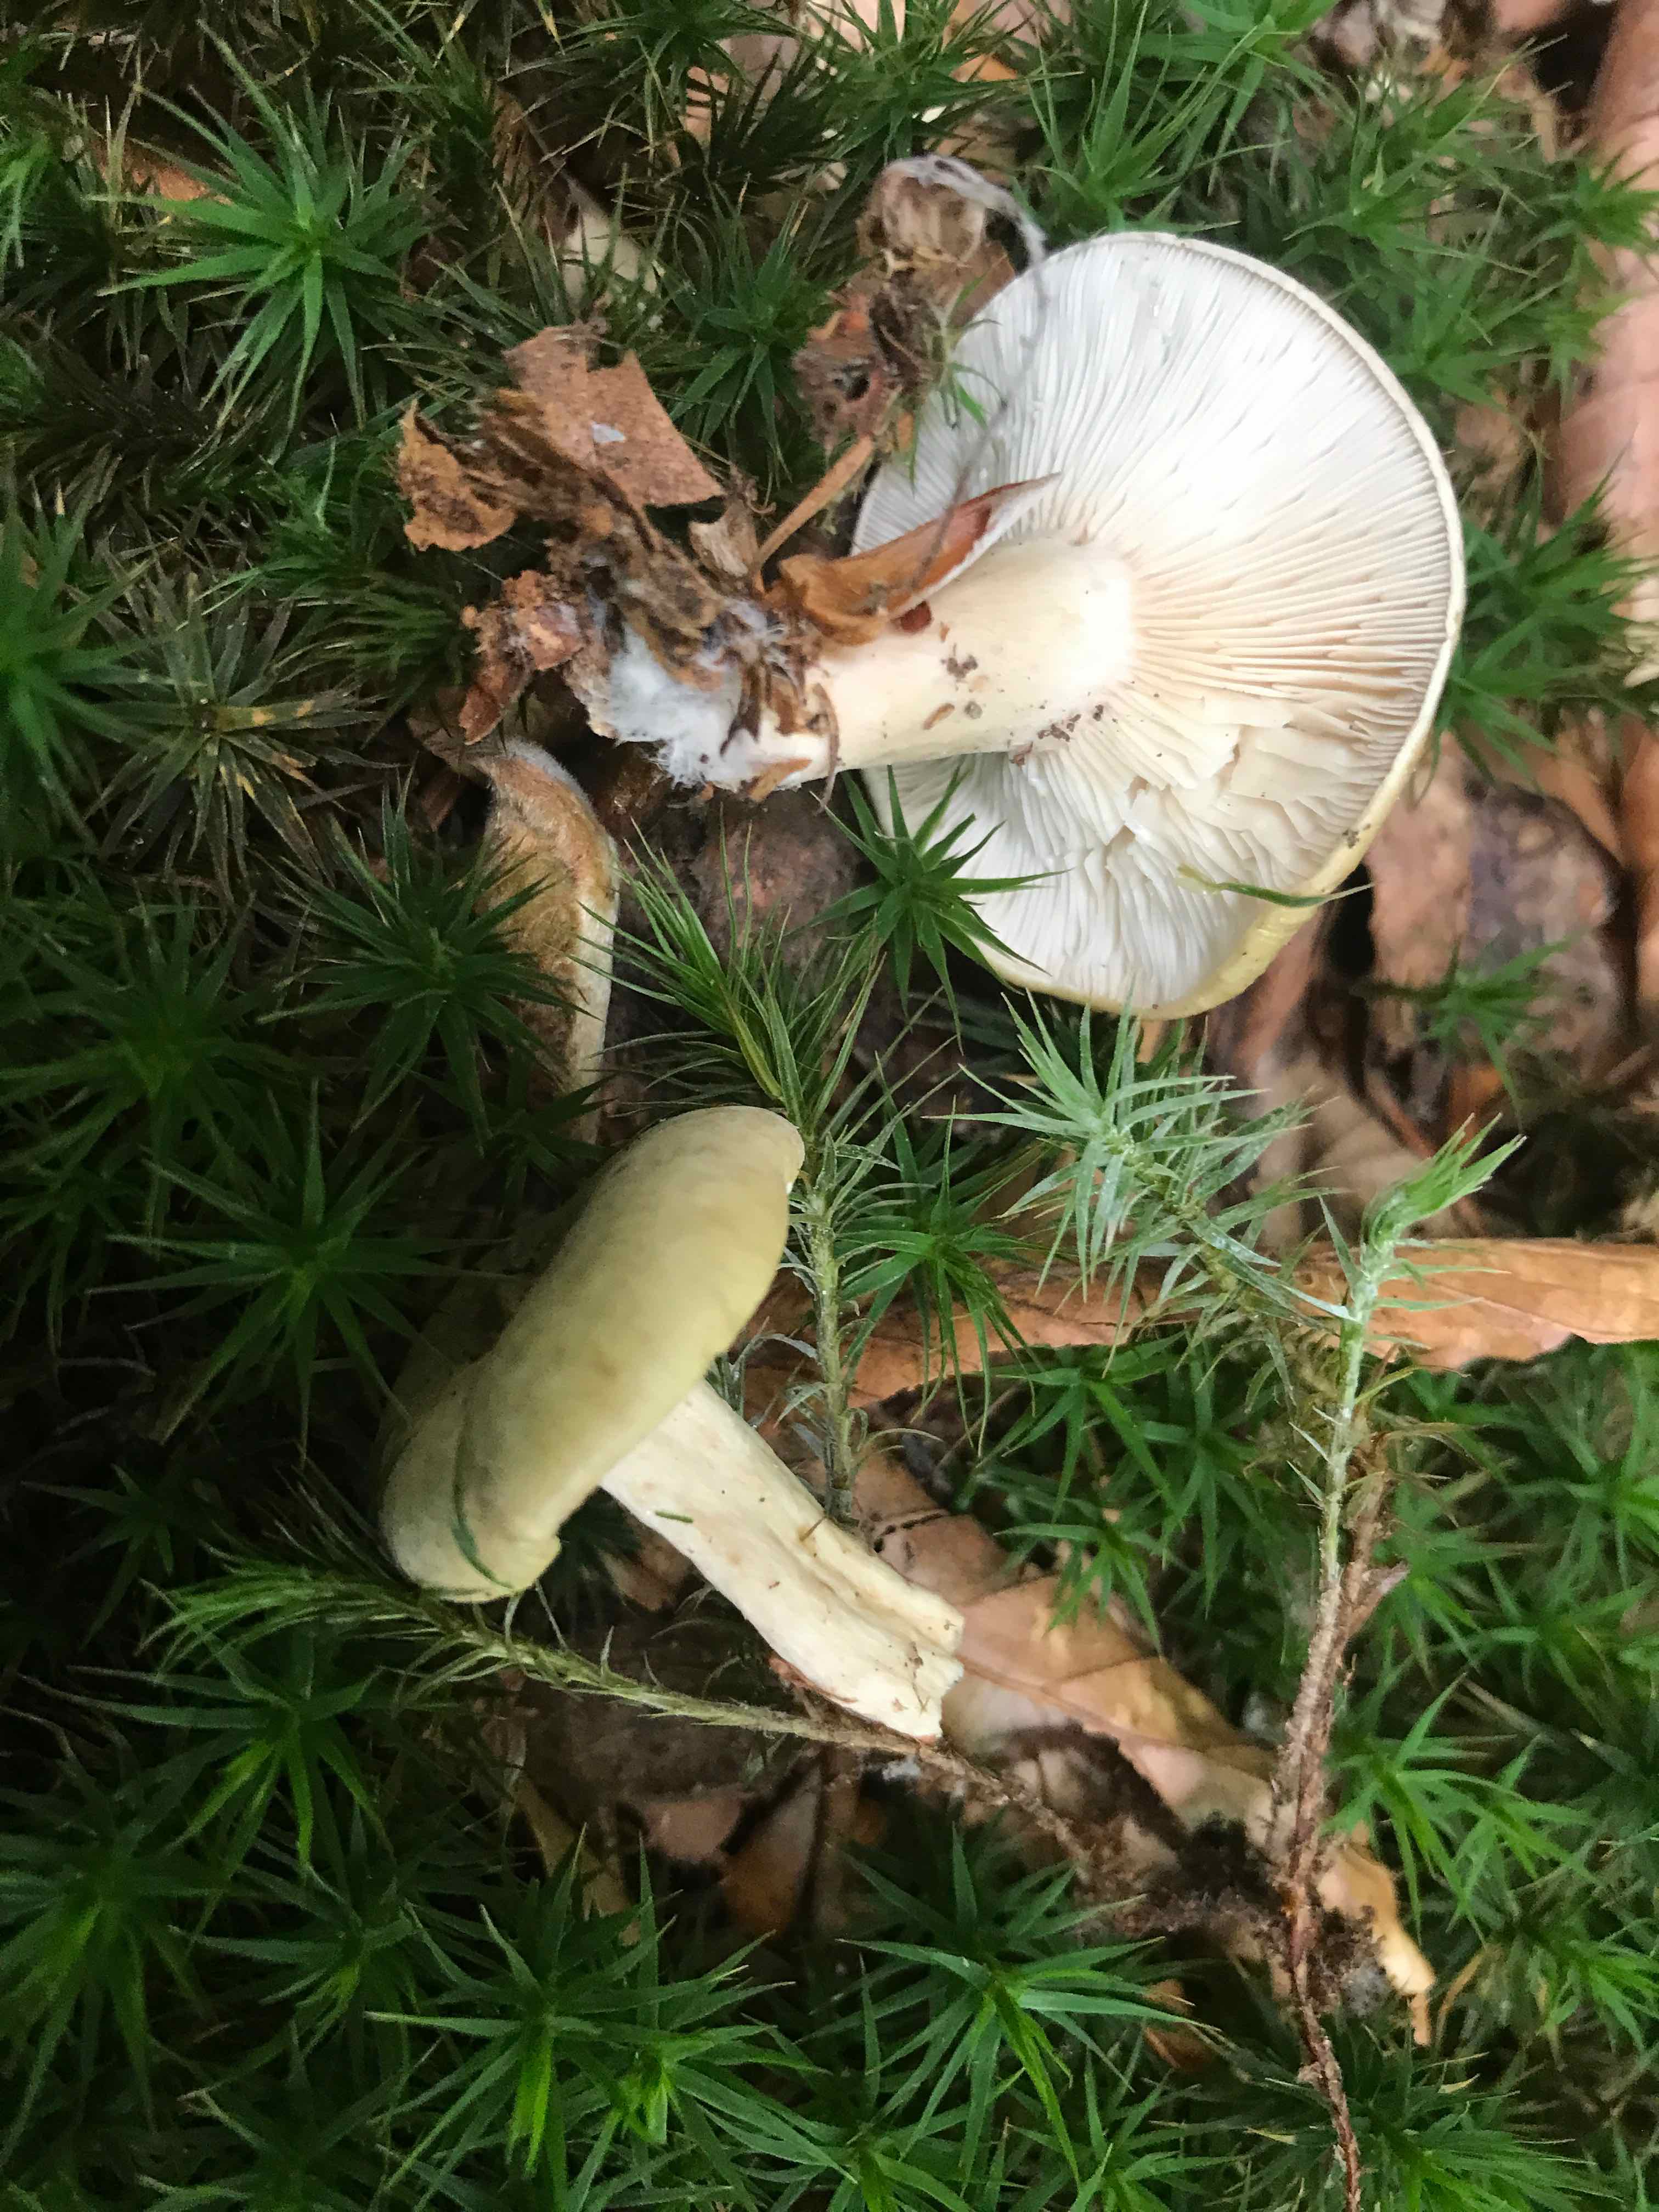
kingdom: Fungi
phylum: Basidiomycota
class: Agaricomycetes
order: Russulales
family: Russulaceae
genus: Lactarius
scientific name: Lactarius blennius
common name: dråbeplettet mælkehat
